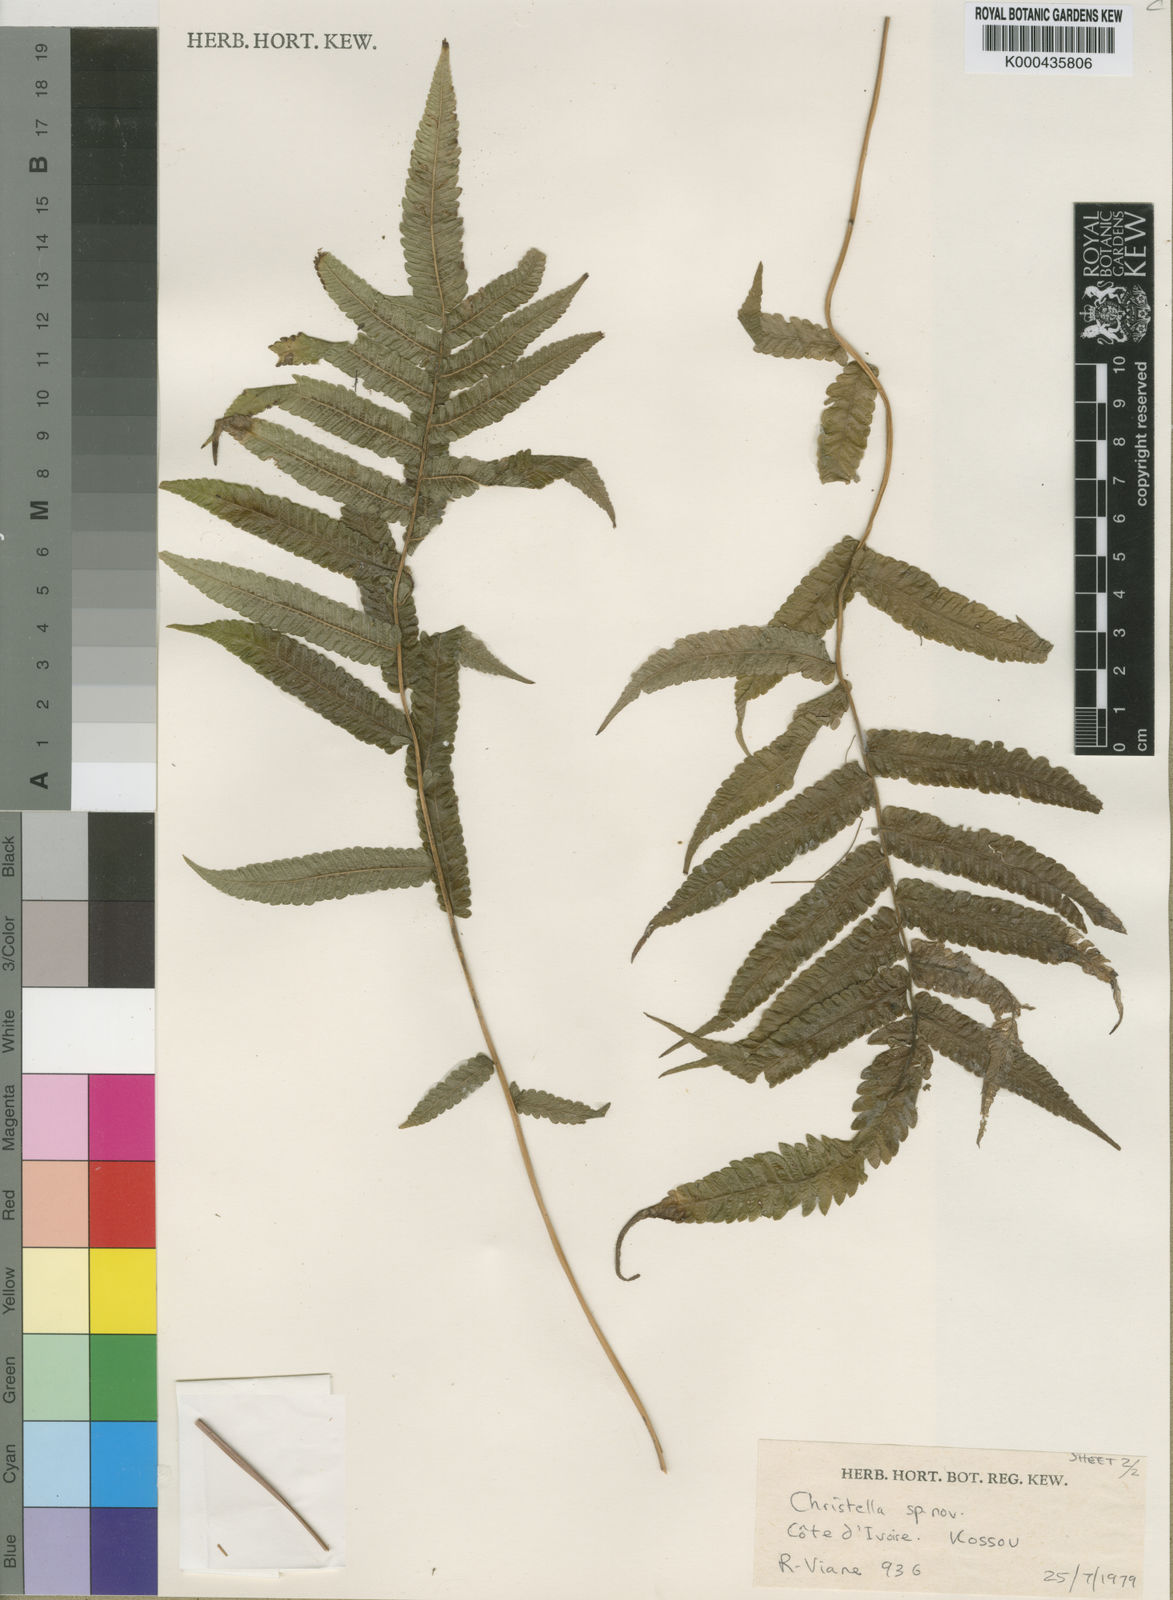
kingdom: Plantae
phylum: Tracheophyta
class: Polypodiopsida
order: Polypodiales
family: Thelypteridaceae
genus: Christella
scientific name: Christella
